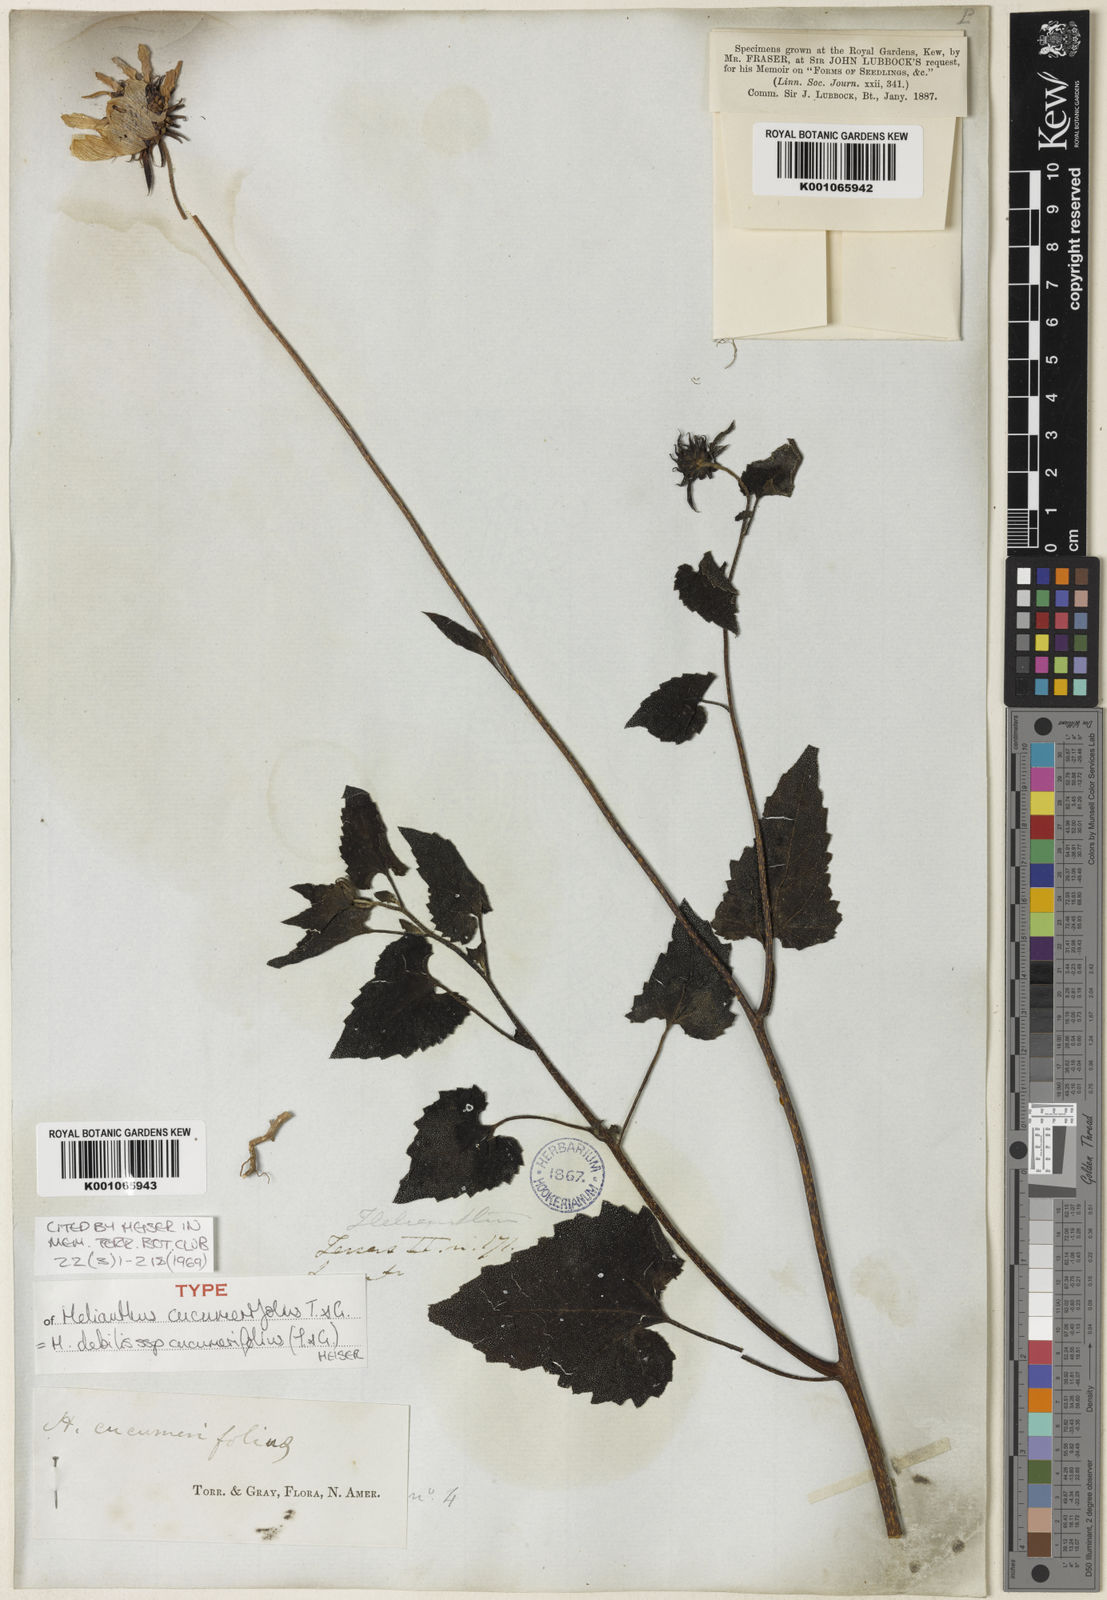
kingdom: Plantae
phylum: Tracheophyta
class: Magnoliopsida
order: Asterales
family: Asteraceae
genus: Helianthus
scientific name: Helianthus debilis
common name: Weak sunflower
